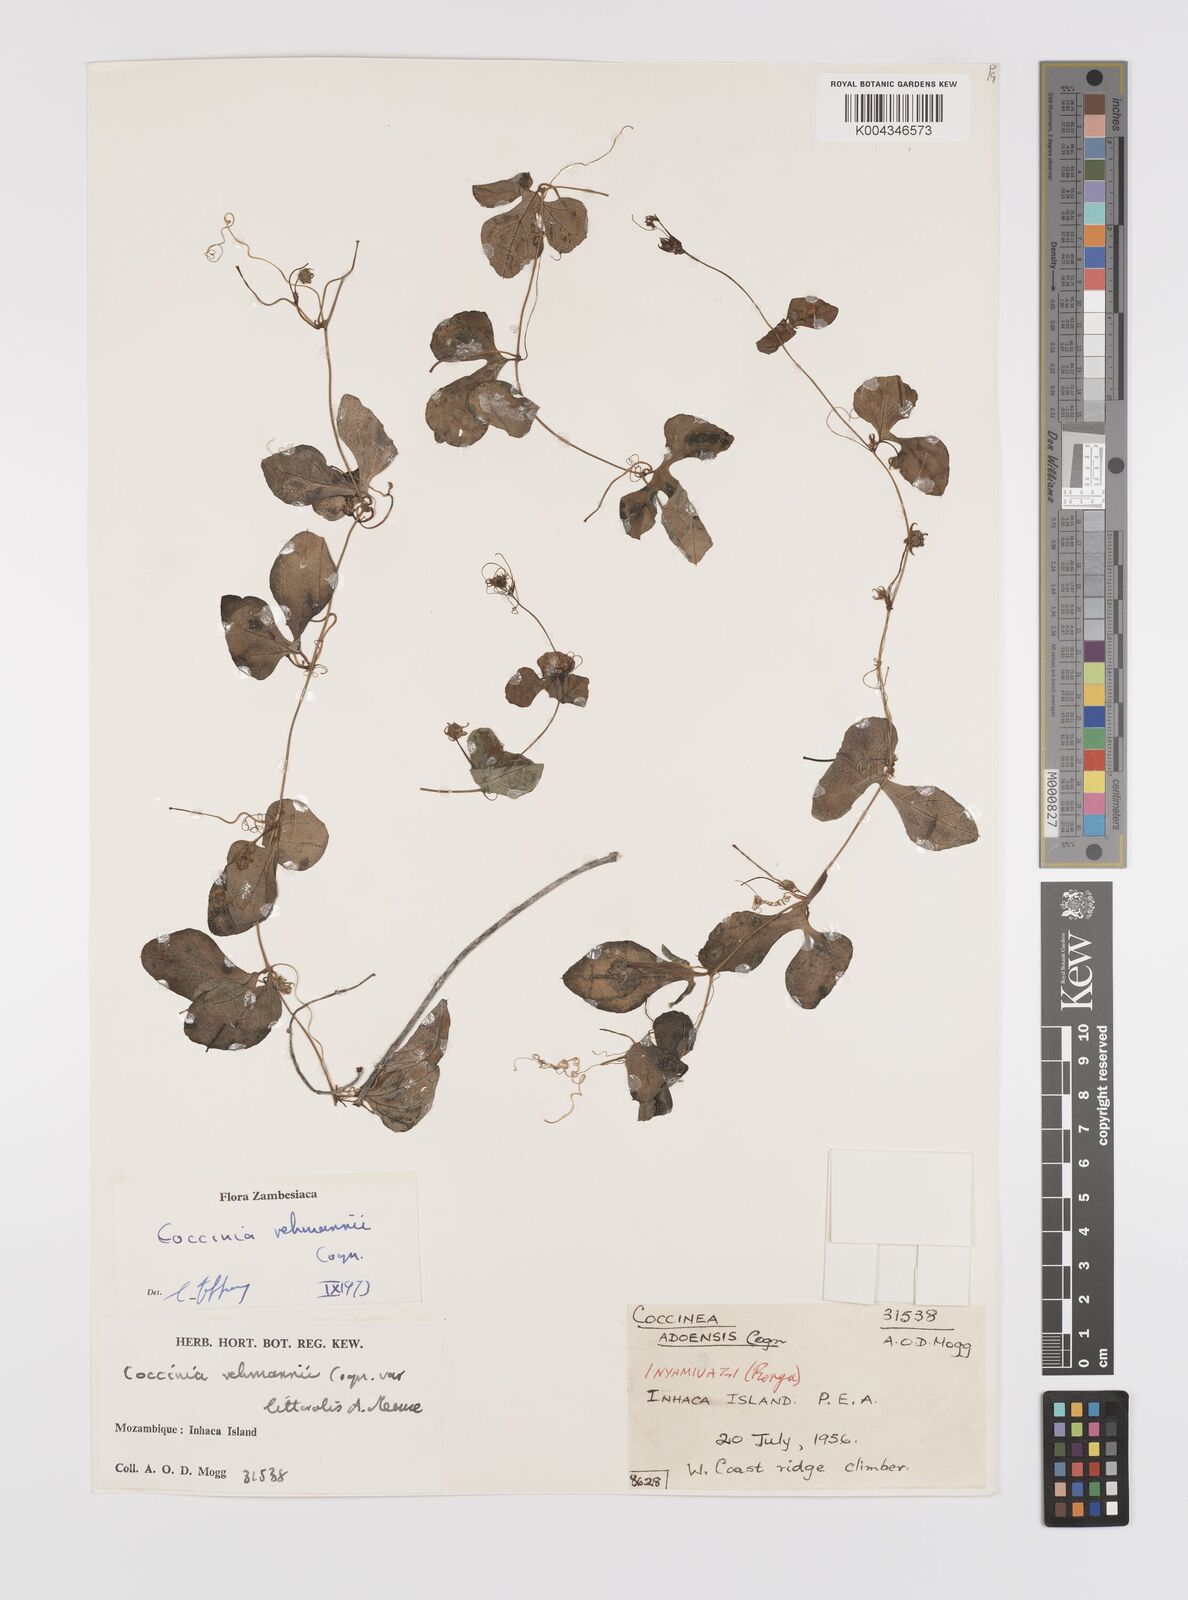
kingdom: Plantae
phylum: Tracheophyta
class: Magnoliopsida
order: Cucurbitales
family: Cucurbitaceae
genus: Coccinia
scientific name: Coccinia rehmannii
